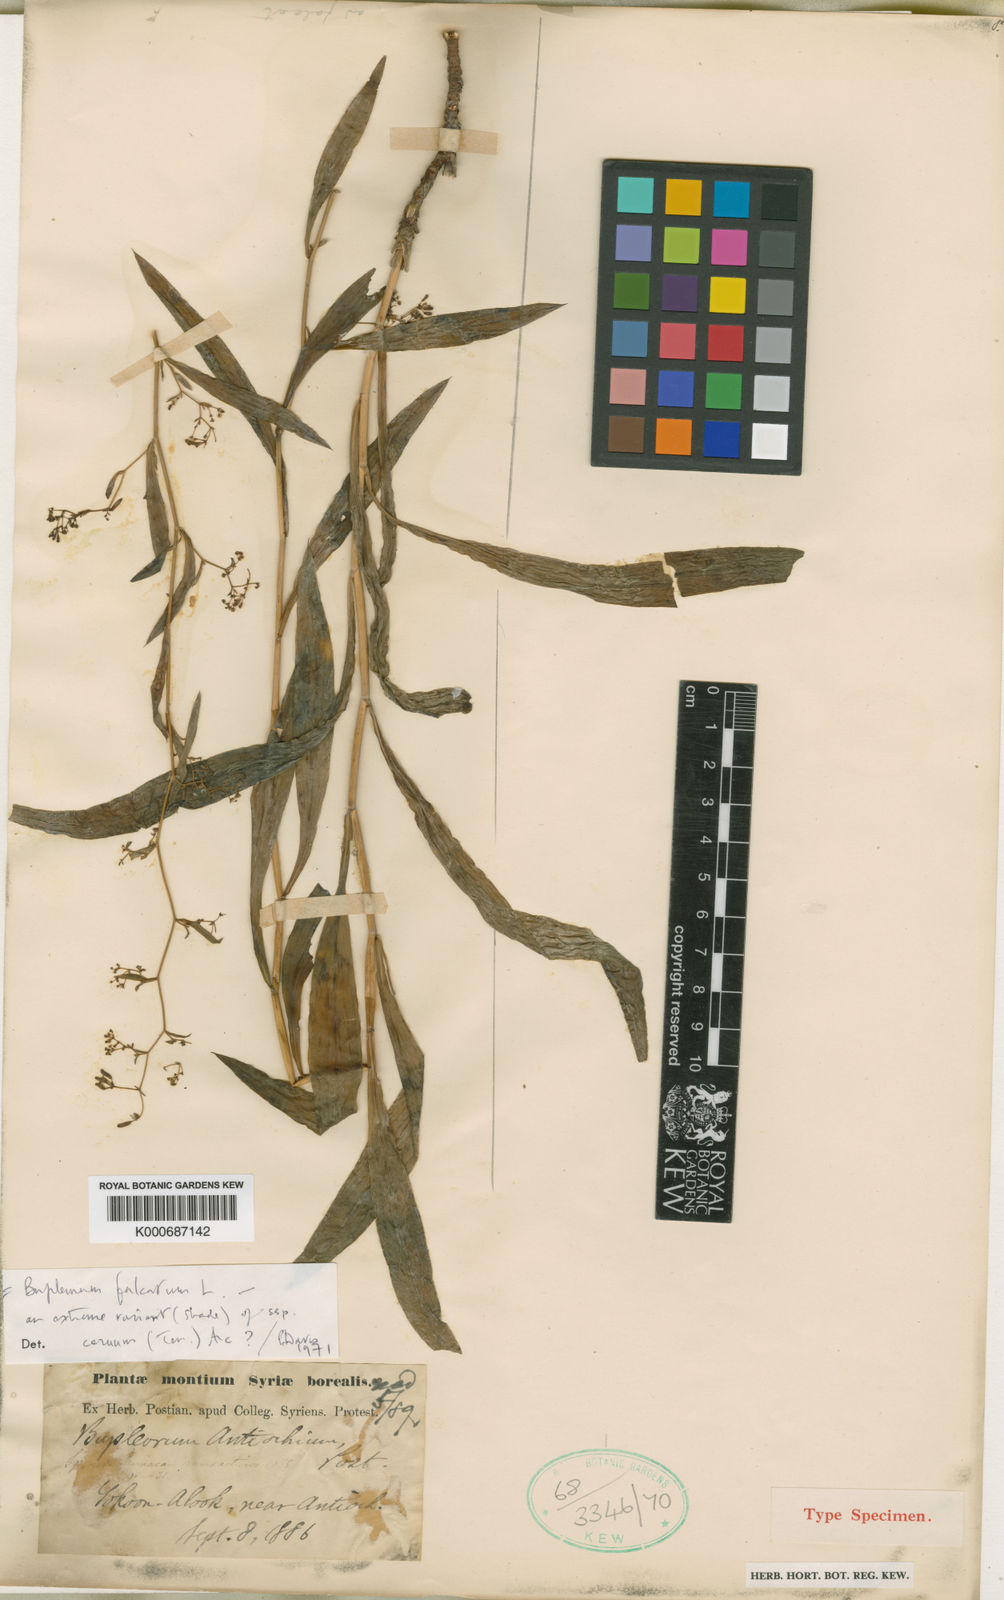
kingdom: Plantae
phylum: Tracheophyta
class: Magnoliopsida
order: Apiales
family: Apiaceae
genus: Bupleurum
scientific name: Bupleurum falcatum
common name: Sickle-leaved hare's-ear
